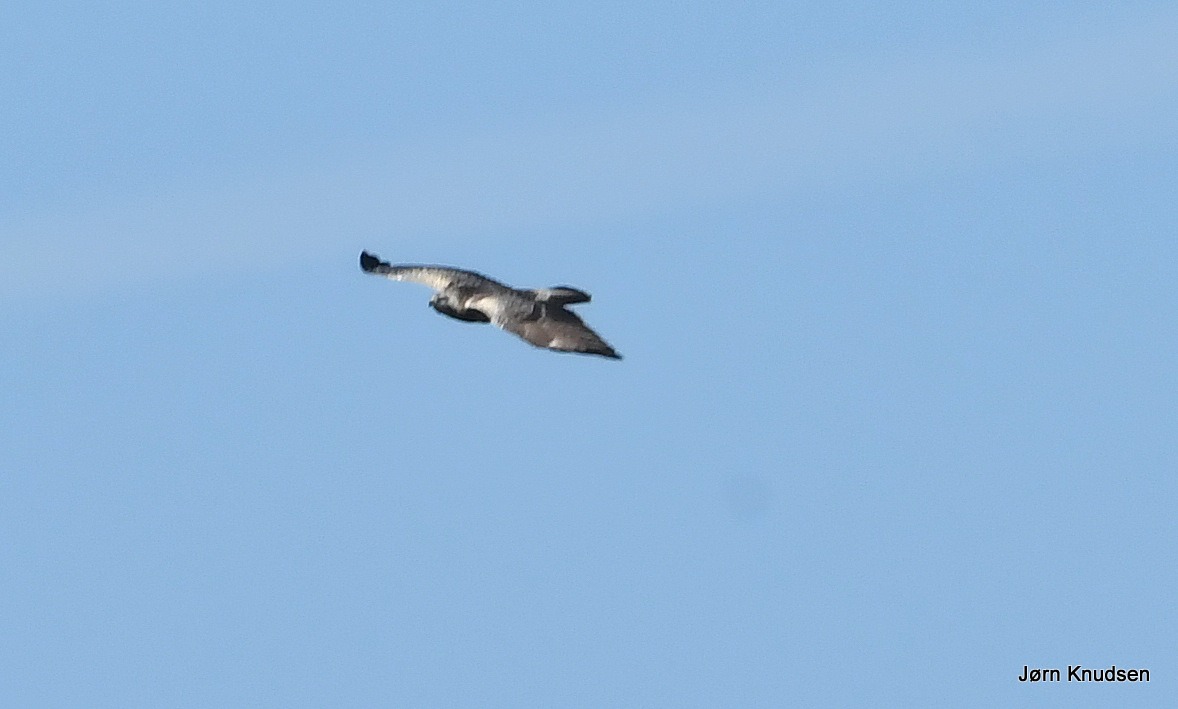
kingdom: Animalia
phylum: Chordata
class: Aves
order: Accipitriformes
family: Accipitridae
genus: Buteo
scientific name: Buteo buteo
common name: Musvåge
